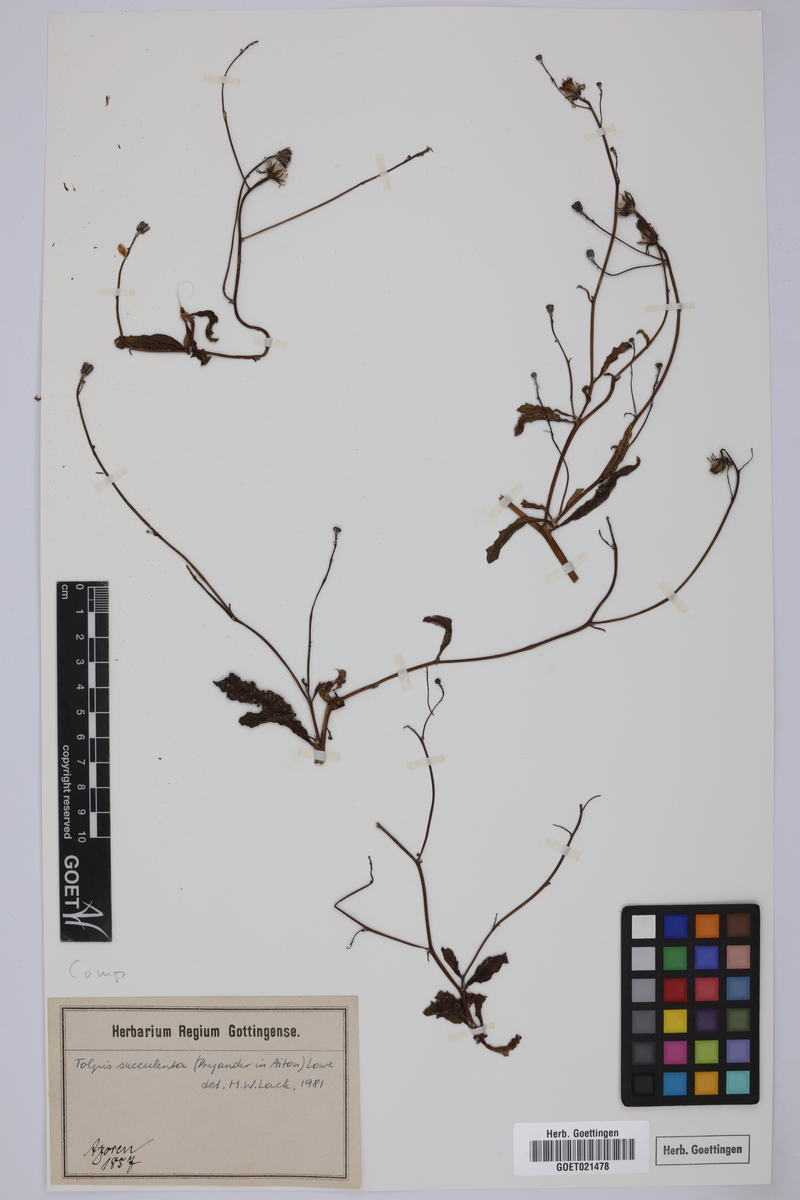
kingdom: Plantae
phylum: Tracheophyta
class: Magnoliopsida
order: Asterales
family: Asteraceae
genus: Tolpis
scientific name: Tolpis succulenta
